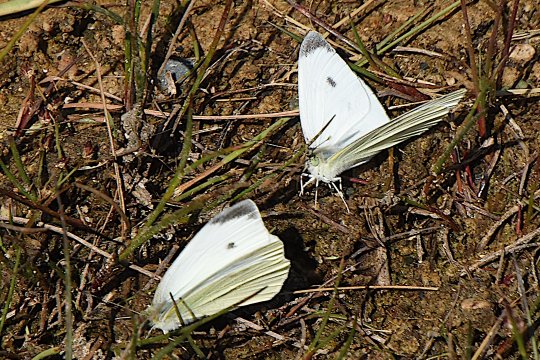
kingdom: Animalia
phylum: Arthropoda
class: Insecta
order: Lepidoptera
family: Pieridae
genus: Pieris
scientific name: Pieris rapae
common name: Cabbage White
